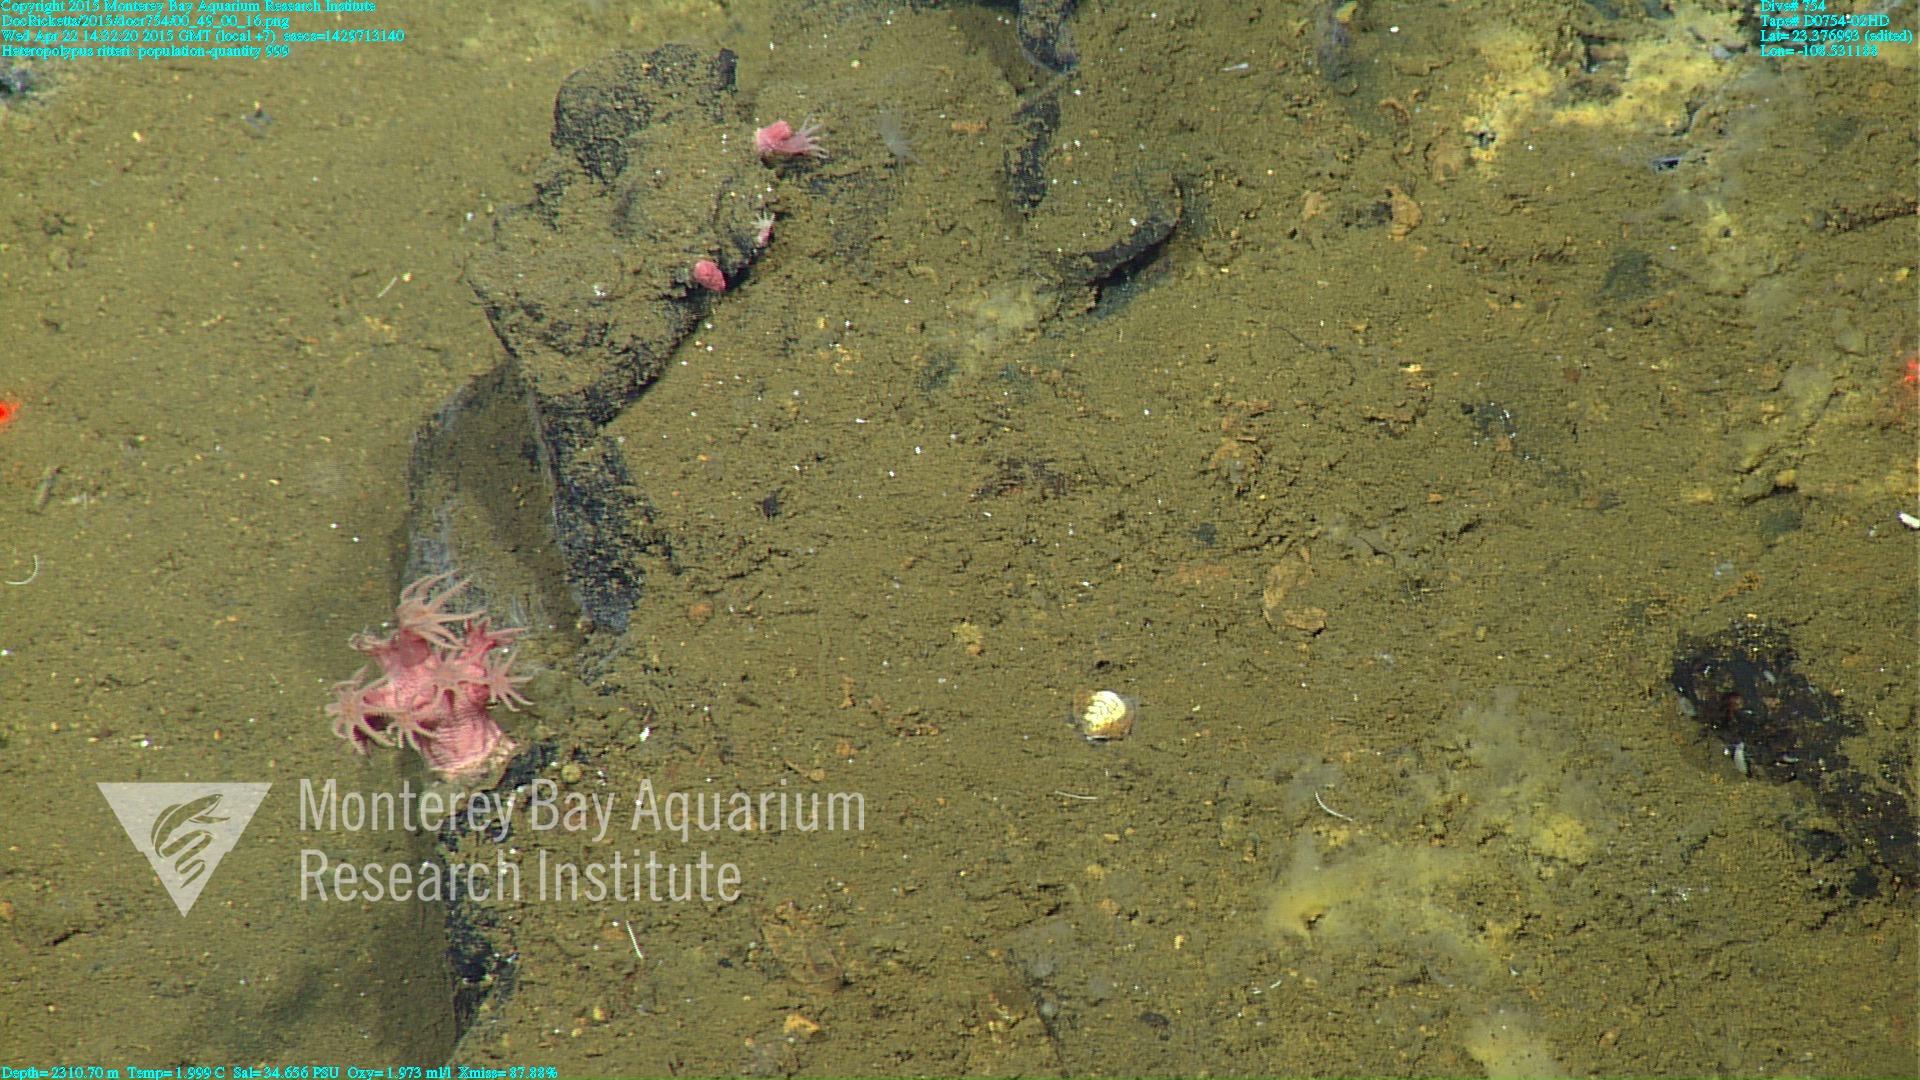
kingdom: Animalia
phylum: Cnidaria
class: Anthozoa
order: Scleralcyonacea
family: Coralliidae
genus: Heteropolypus
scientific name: Heteropolypus ritteri
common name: Ritter's soft coral
